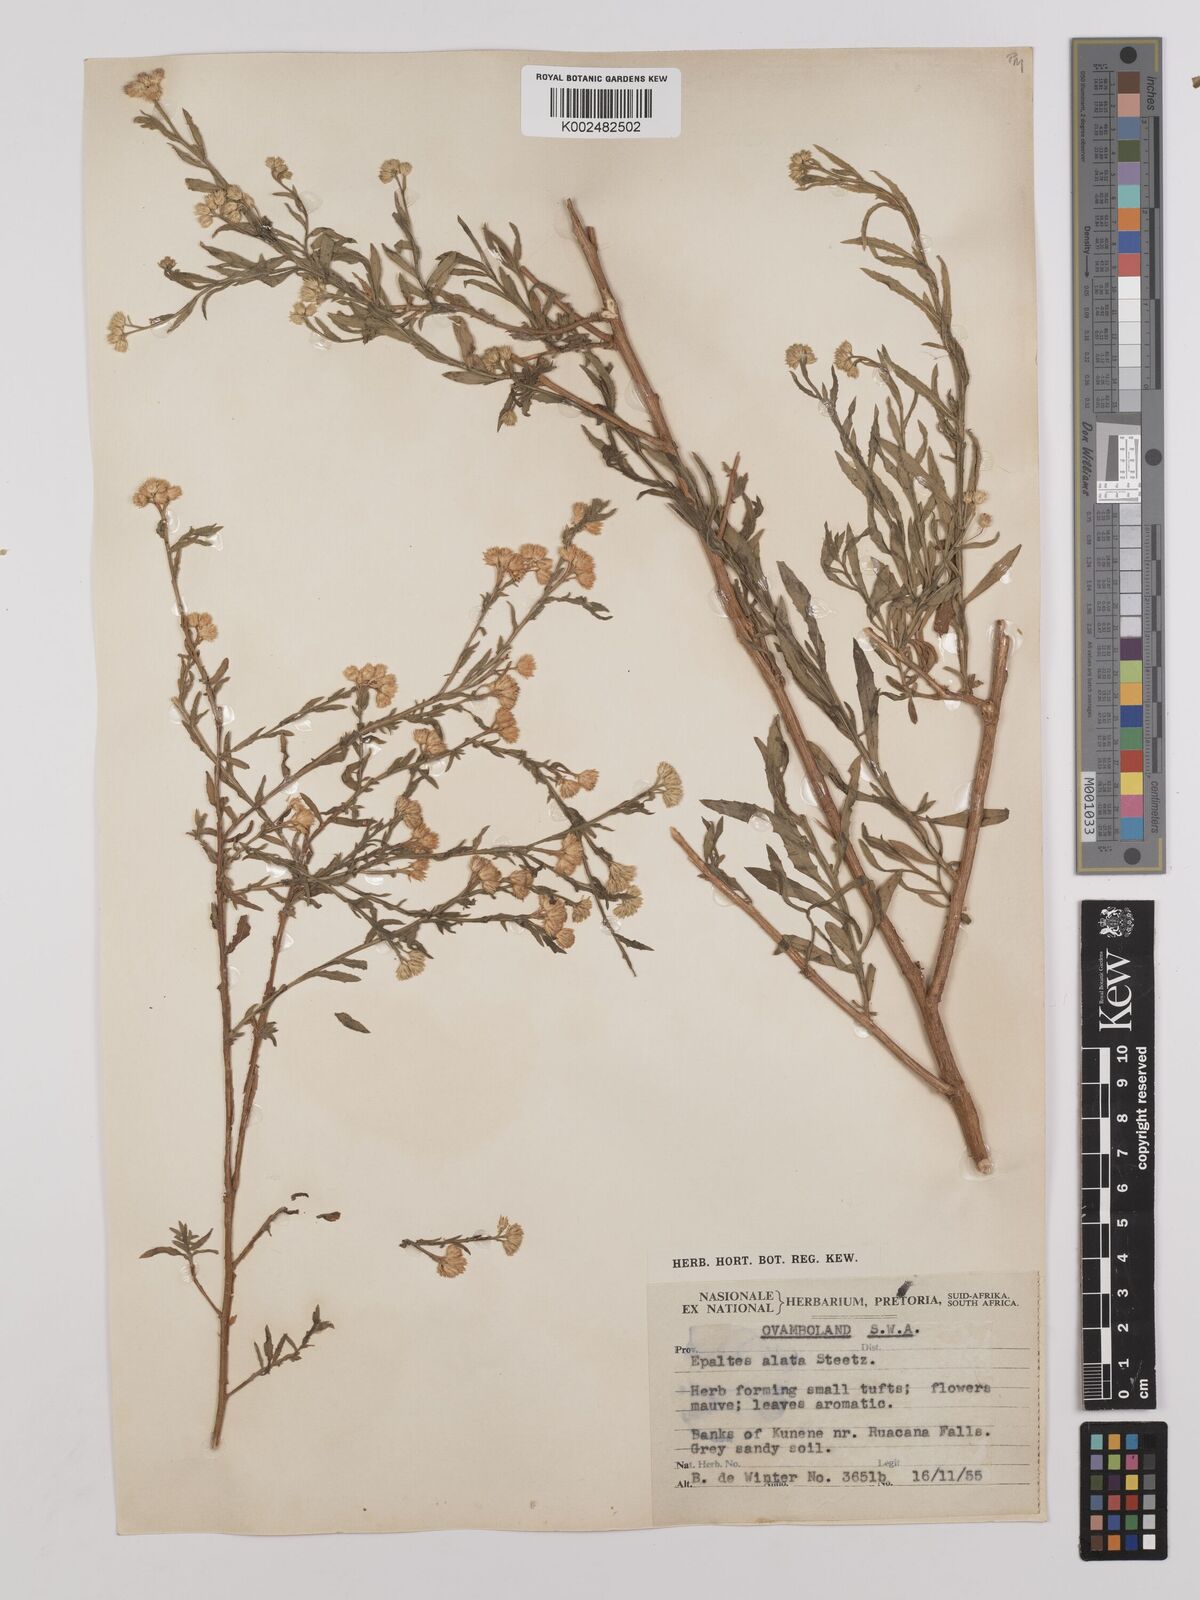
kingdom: Plantae
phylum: Tracheophyta
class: Magnoliopsida
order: Asterales
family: Asteraceae
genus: Litogyne
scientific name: Litogyne gariepina
